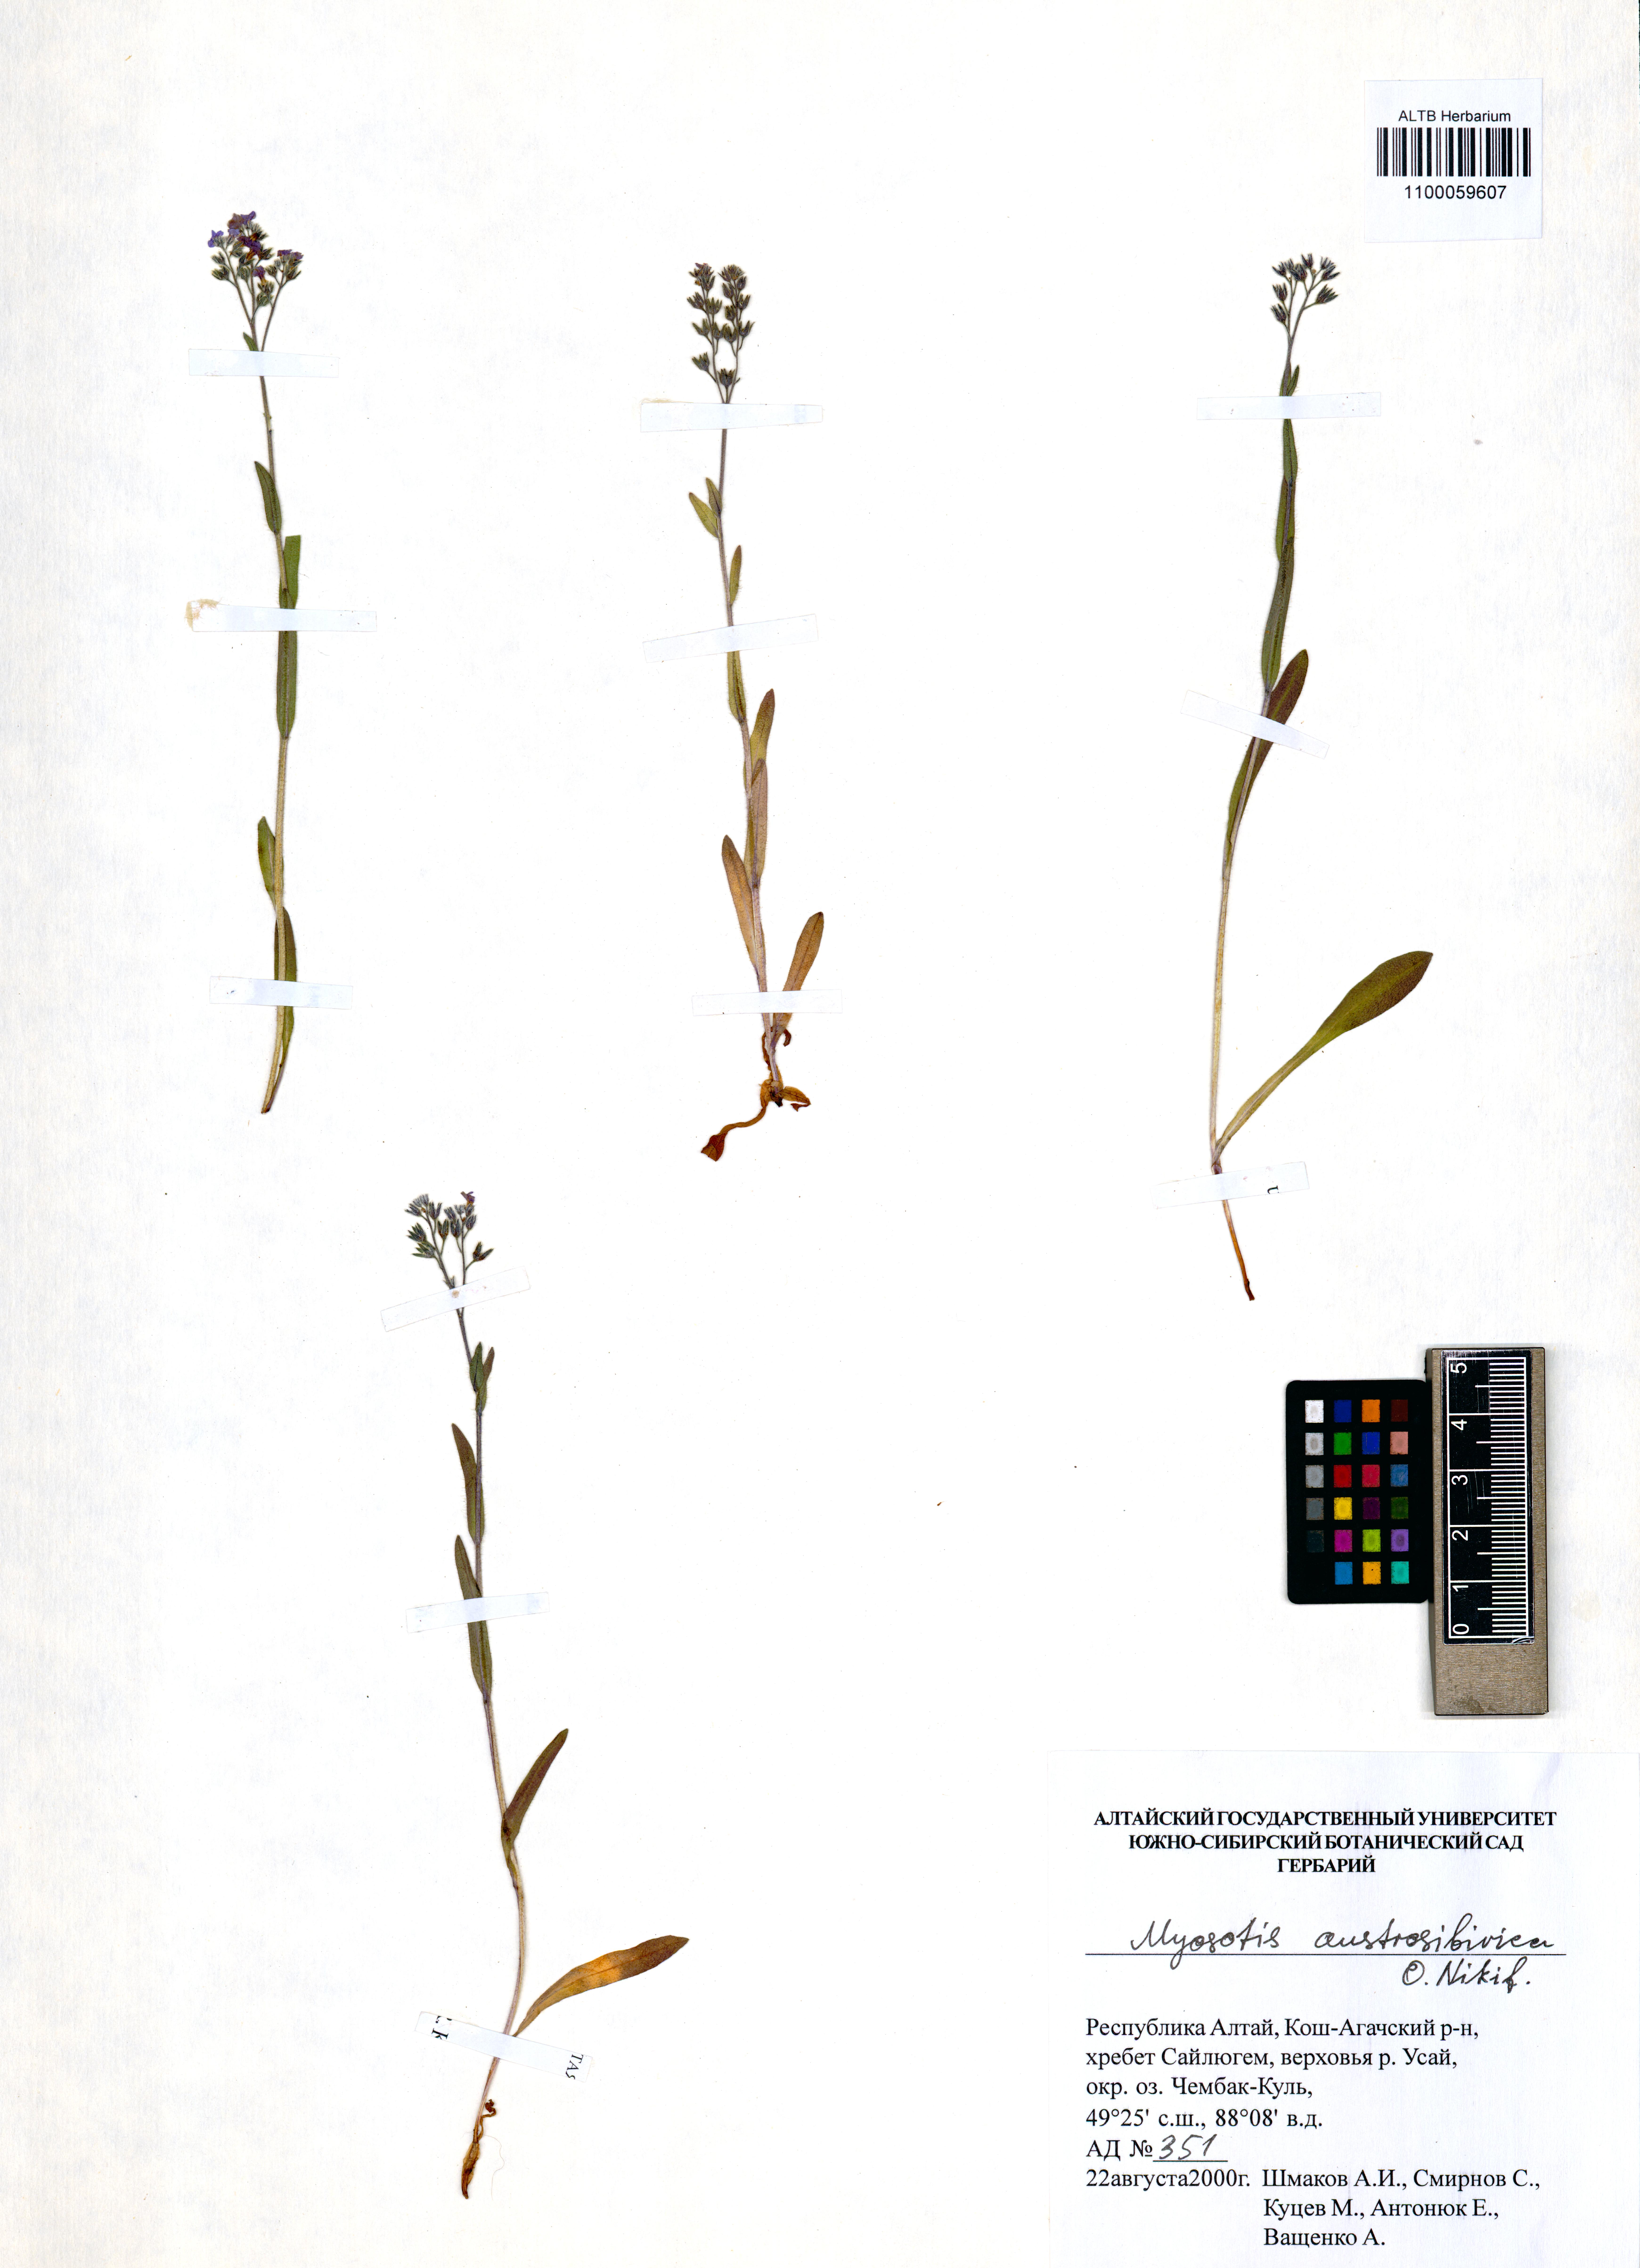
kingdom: Plantae
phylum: Tracheophyta
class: Magnoliopsida
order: Boraginales
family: Boraginaceae
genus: Myosotis
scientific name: Myosotis austrosibirica
